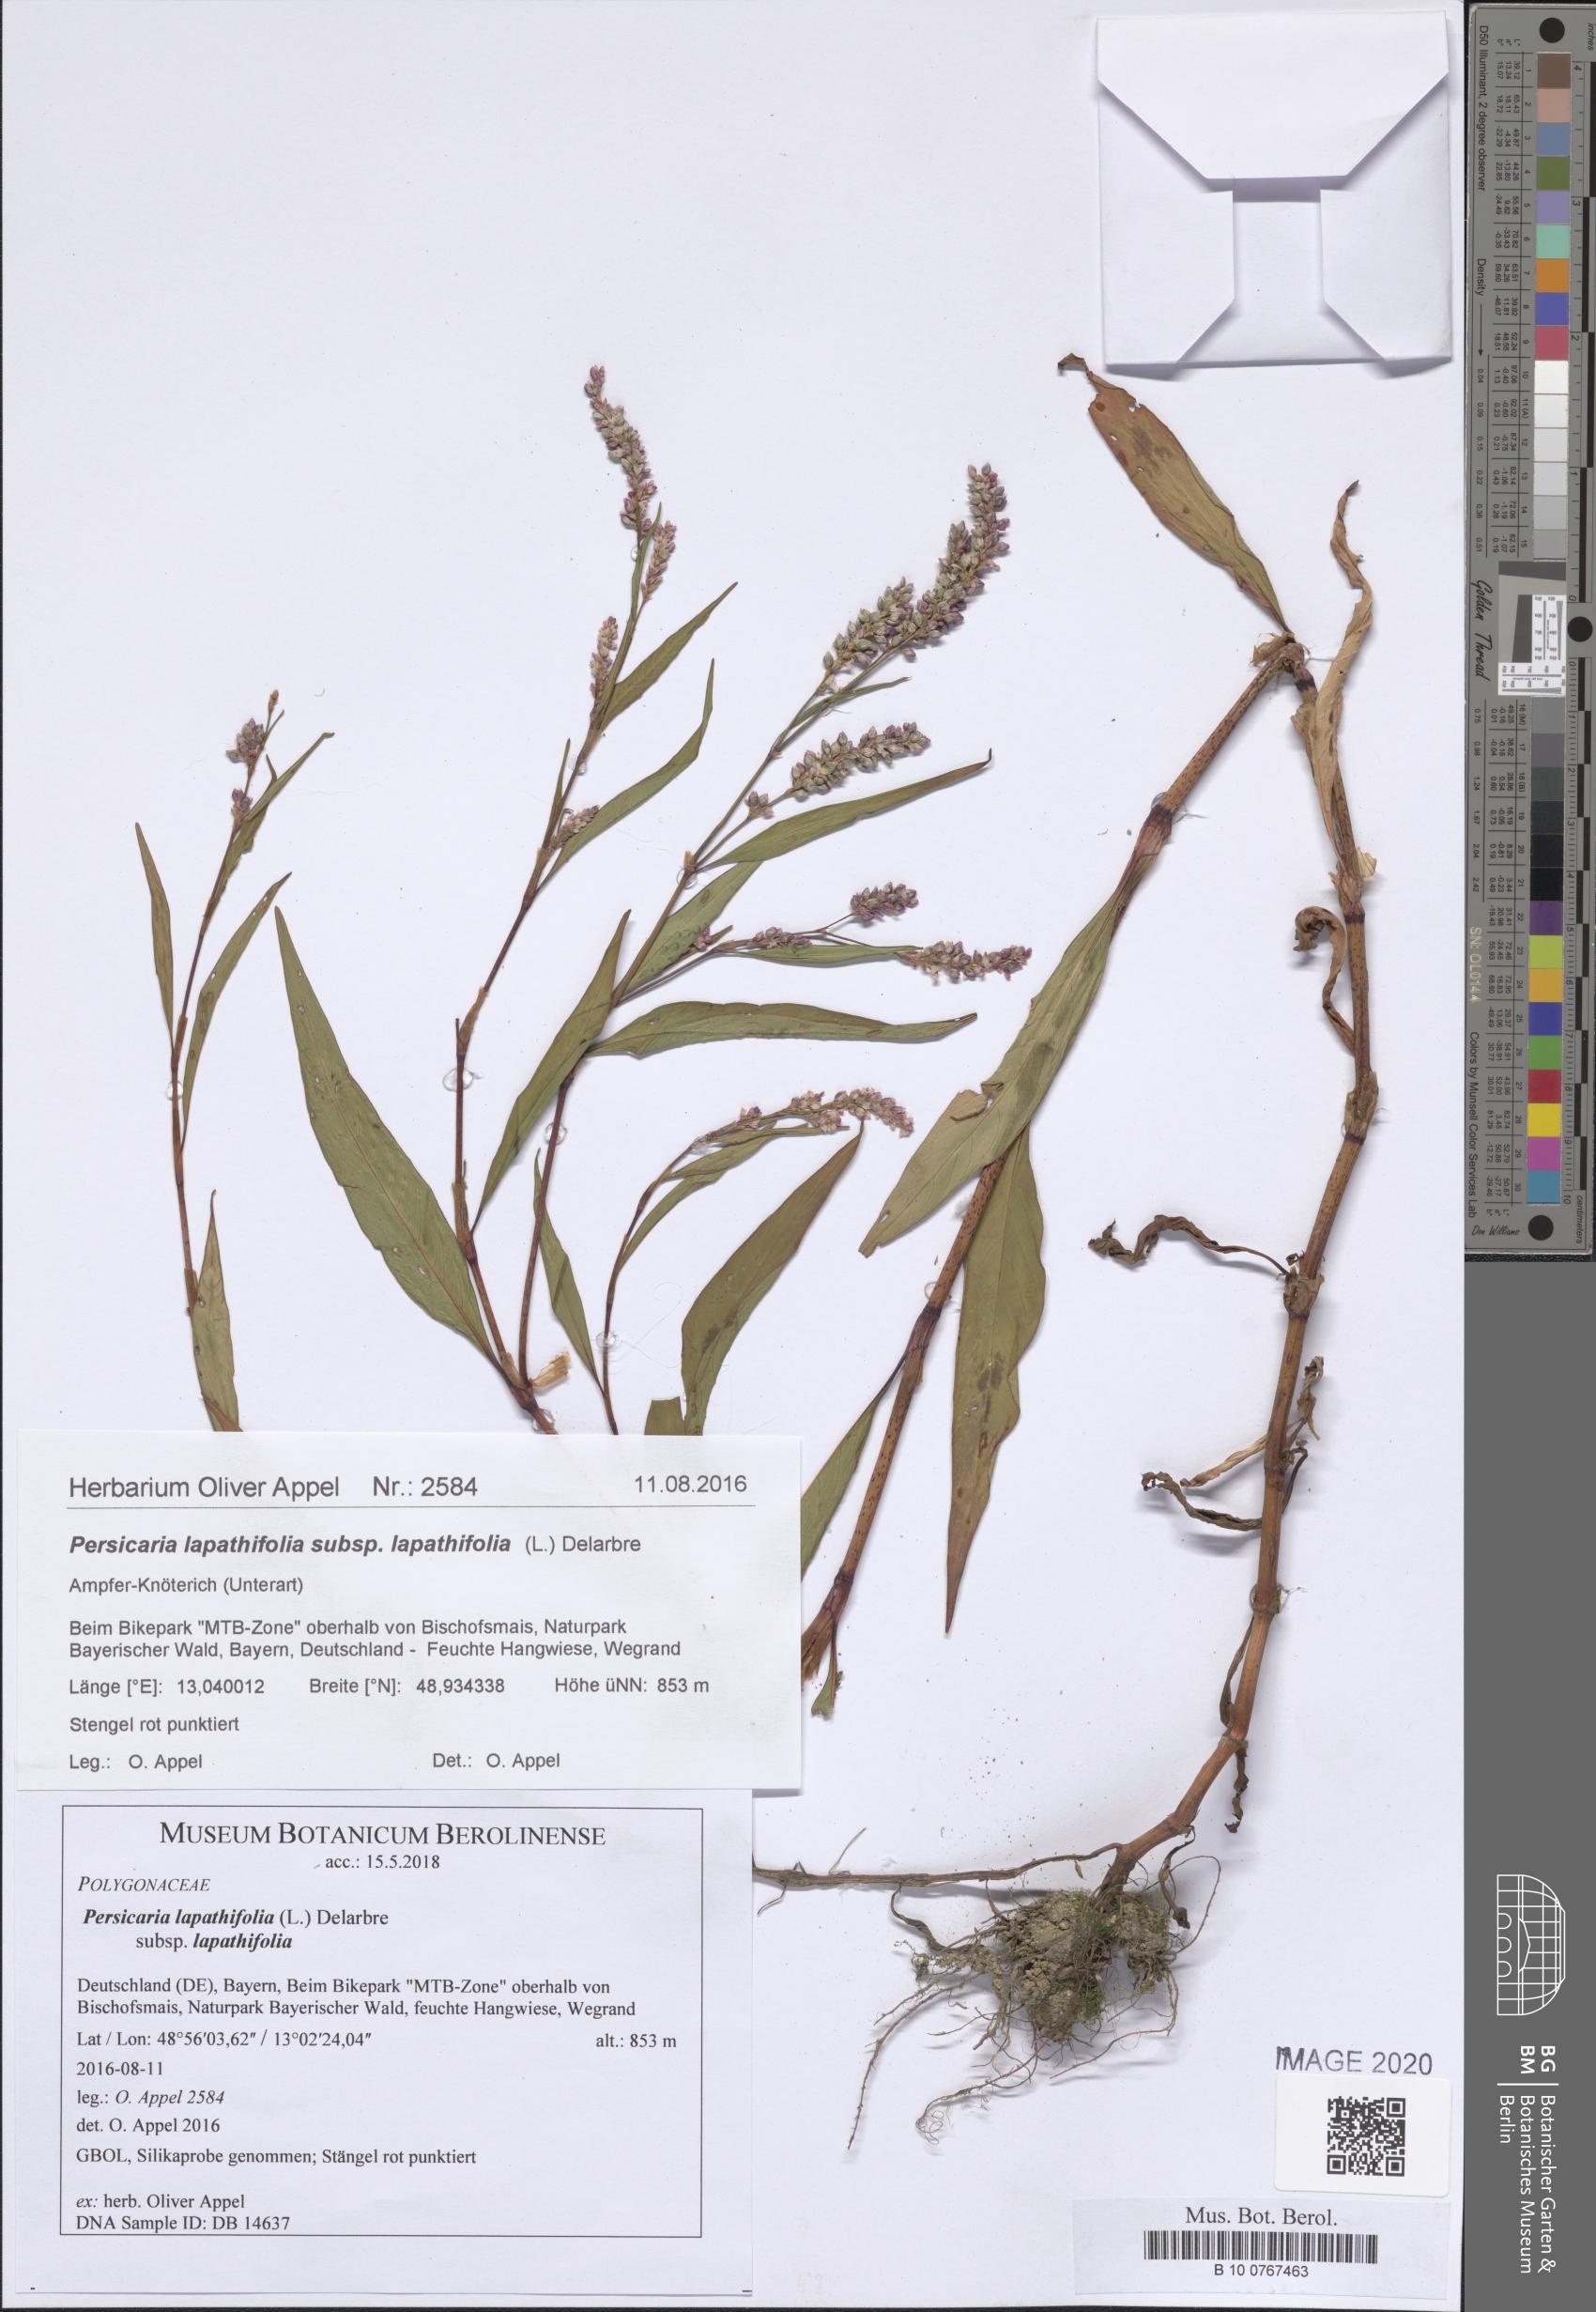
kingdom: Plantae
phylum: Tracheophyta
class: Magnoliopsida
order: Caryophyllales
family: Polygonaceae
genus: Persicaria
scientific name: Persicaria lapathifolia
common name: Curlytop knotweed
